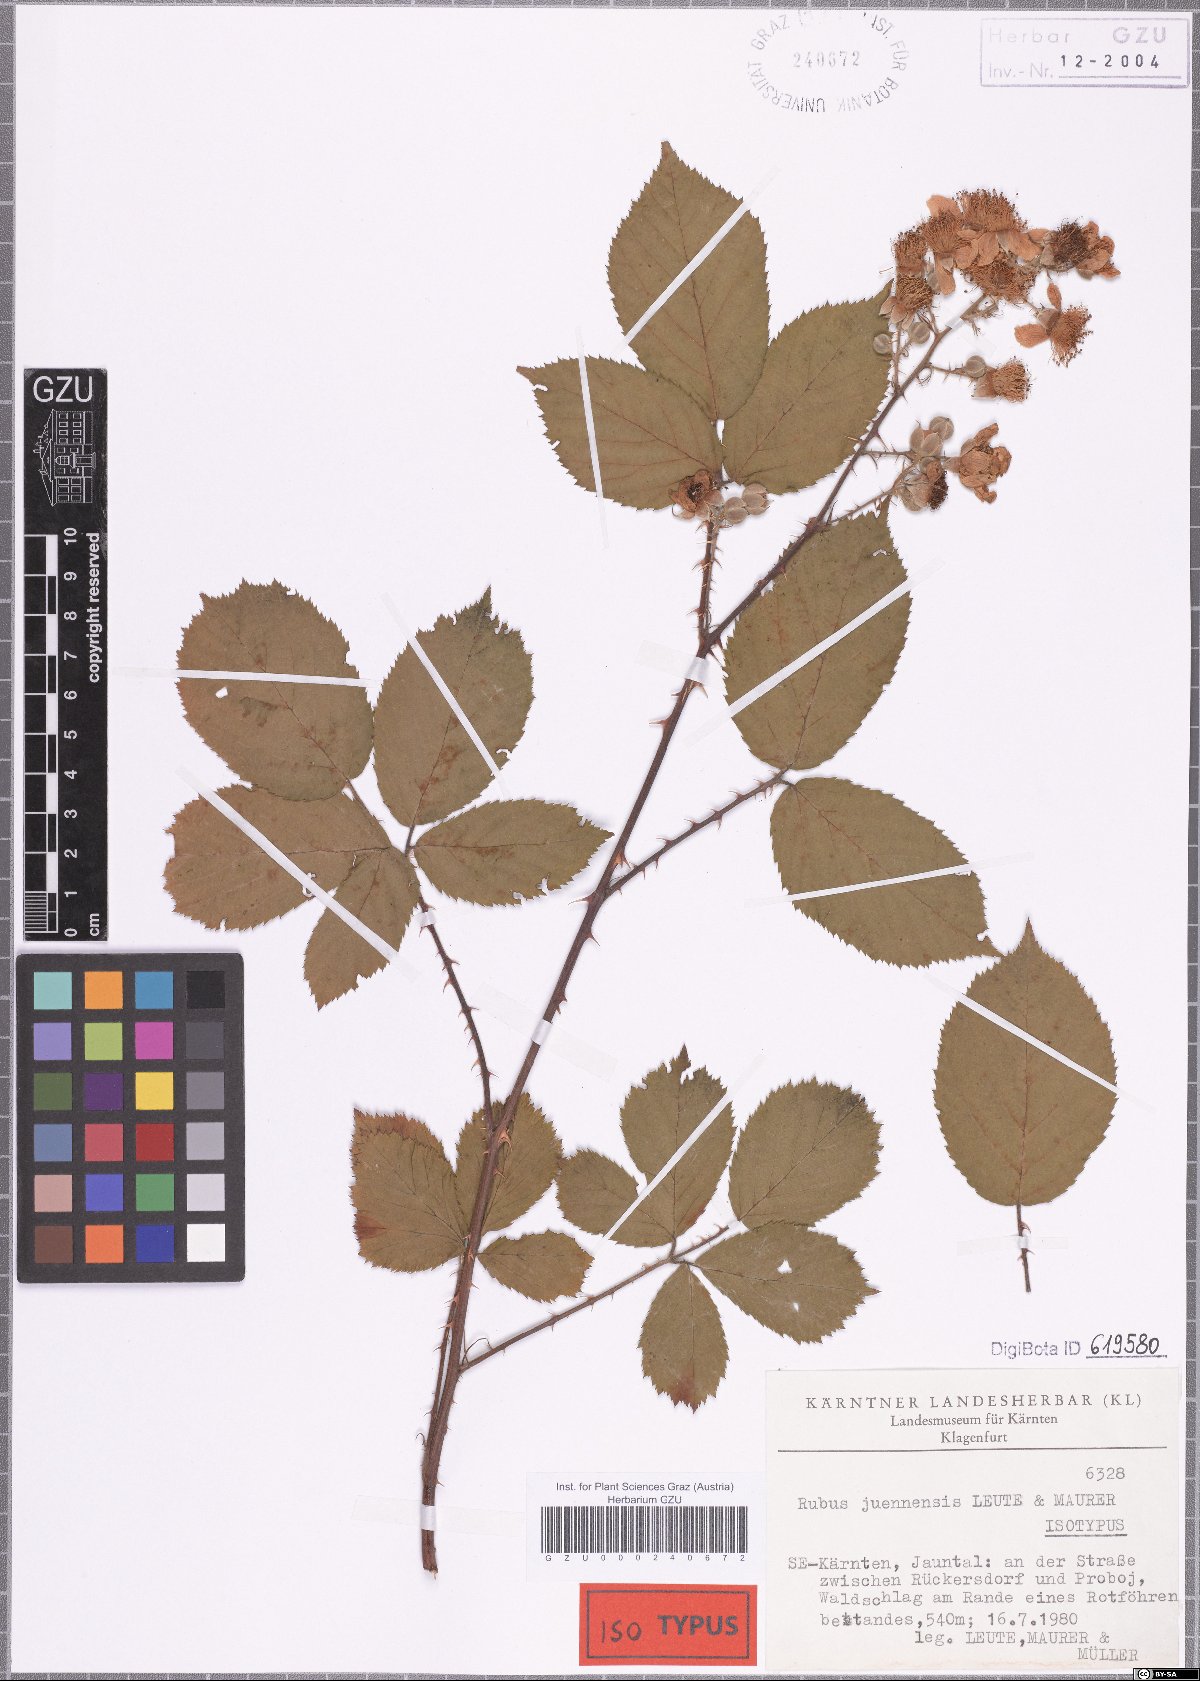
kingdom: Plantae
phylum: Tracheophyta
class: Magnoliopsida
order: Rosales
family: Rosaceae
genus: Rubus
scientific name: Rubus juennensis
